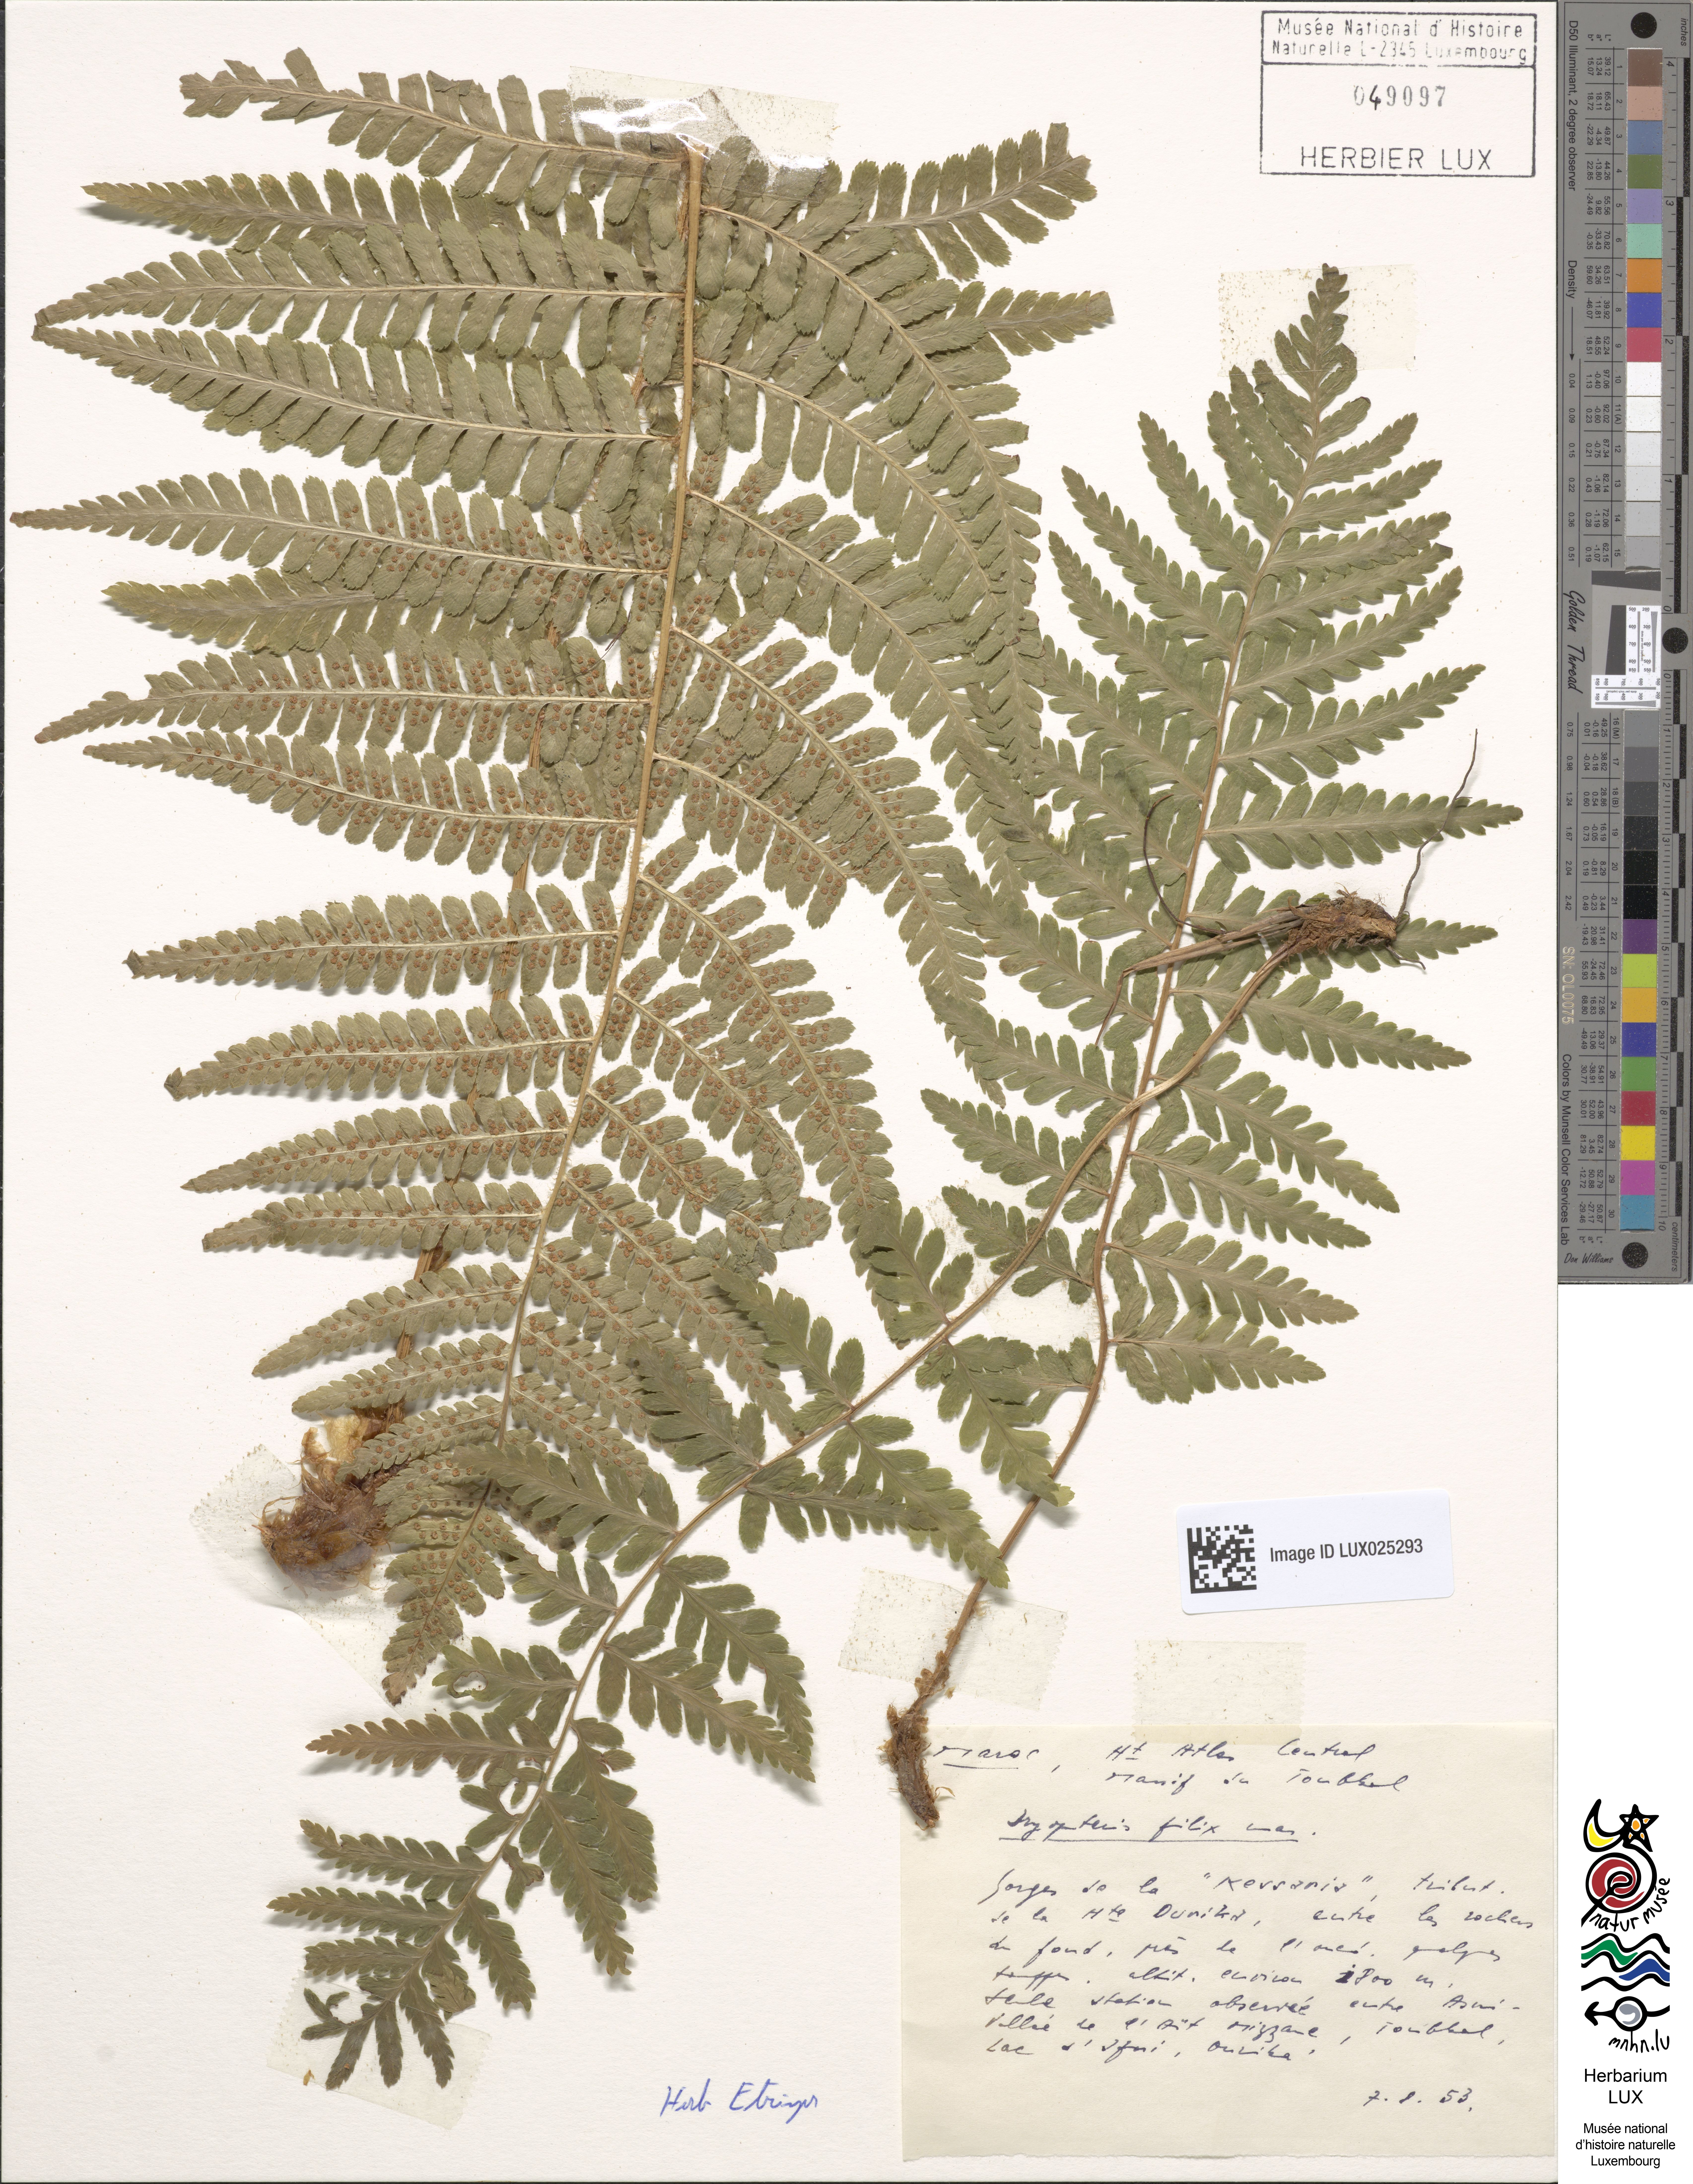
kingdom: Plantae
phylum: Tracheophyta
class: Polypodiopsida
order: Polypodiales
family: Dryopteridaceae
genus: Dryopteris
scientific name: Dryopteris filix-mas
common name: Male fern
